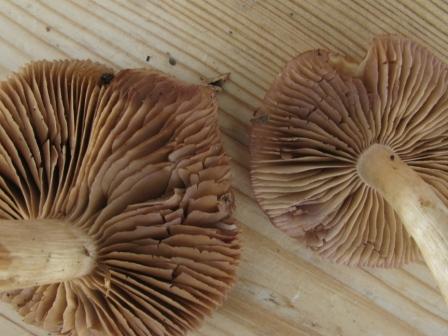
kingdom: Fungi
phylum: Basidiomycota
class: Agaricomycetes
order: Agaricales
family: Cortinariaceae
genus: Cortinarius
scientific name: Cortinarius lebretonii
